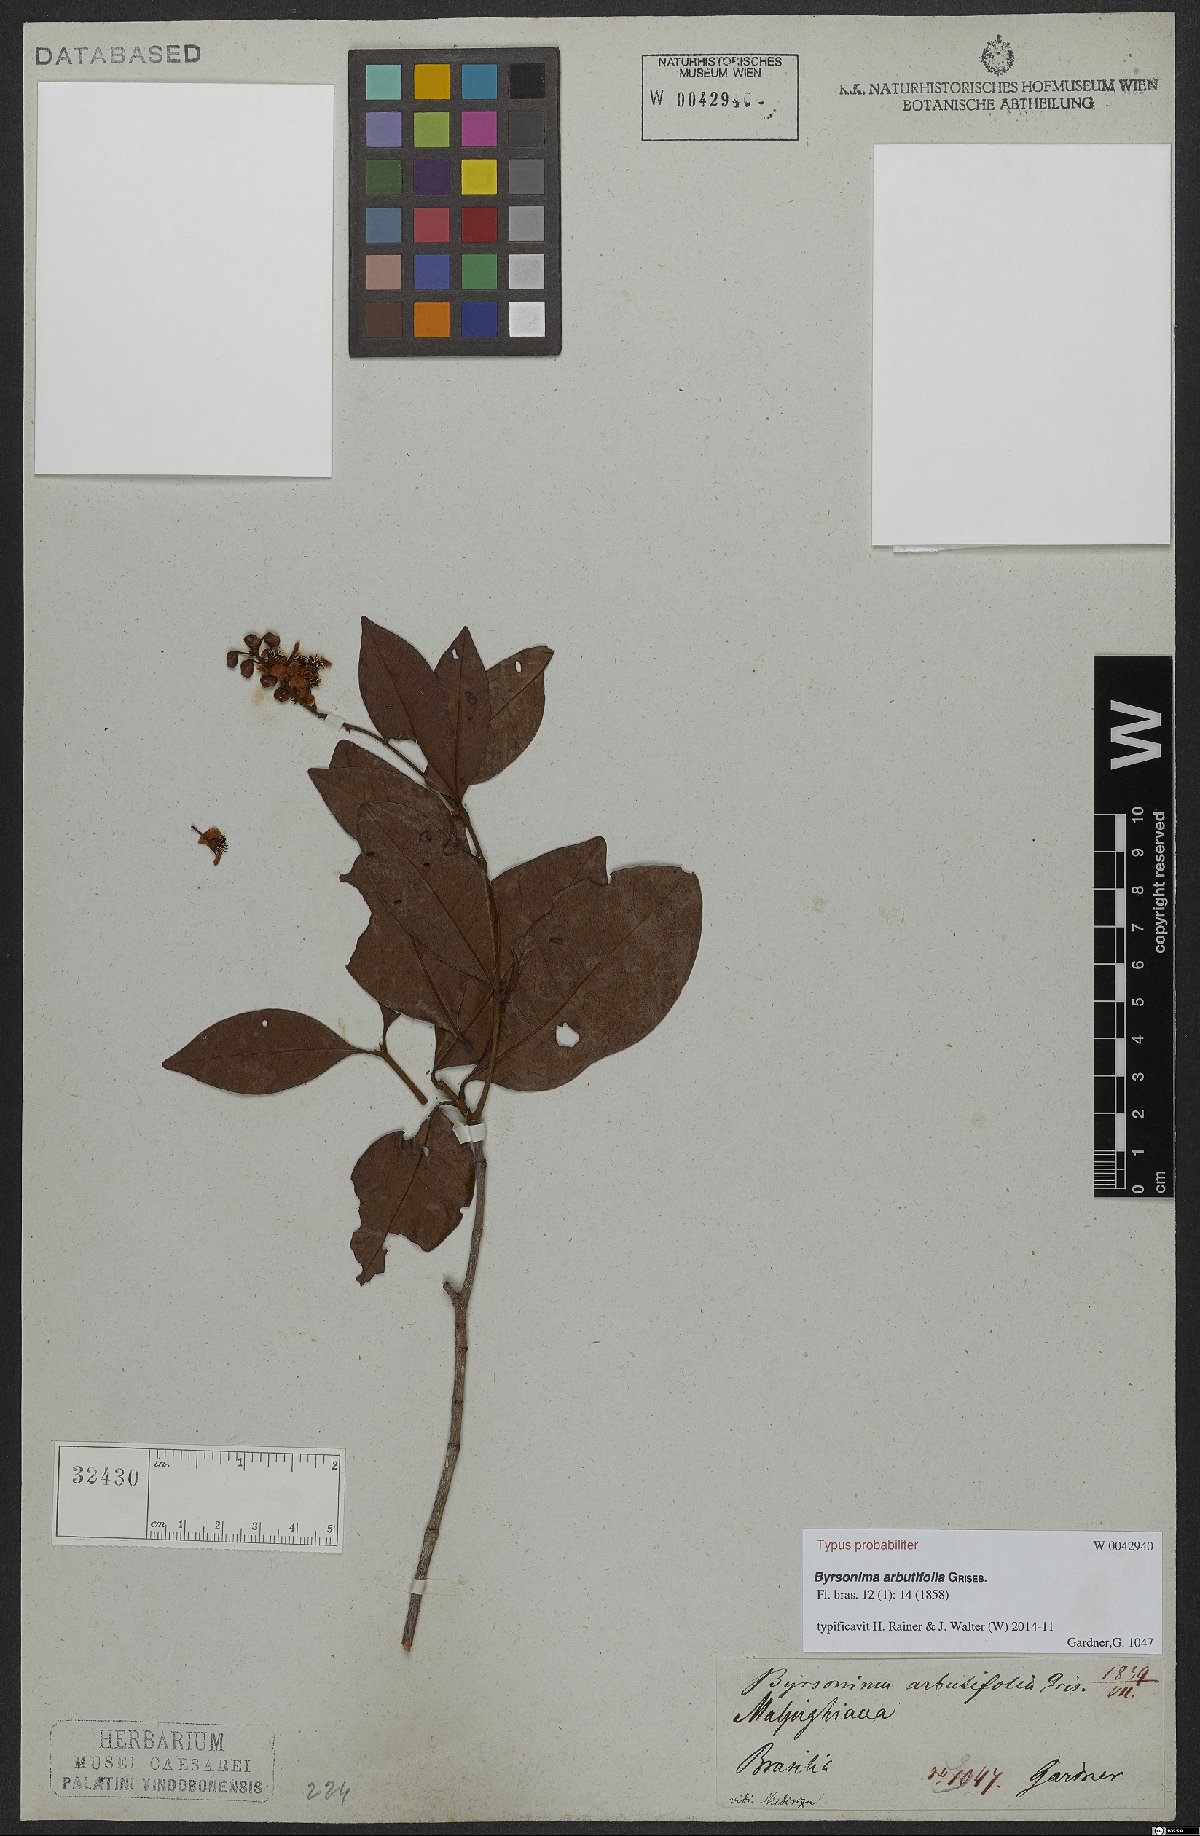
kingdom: Plantae
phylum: Tracheophyta
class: Magnoliopsida
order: Malpighiales
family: Malpighiaceae
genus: Byrsonima
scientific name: Byrsonima bumeliifolia
